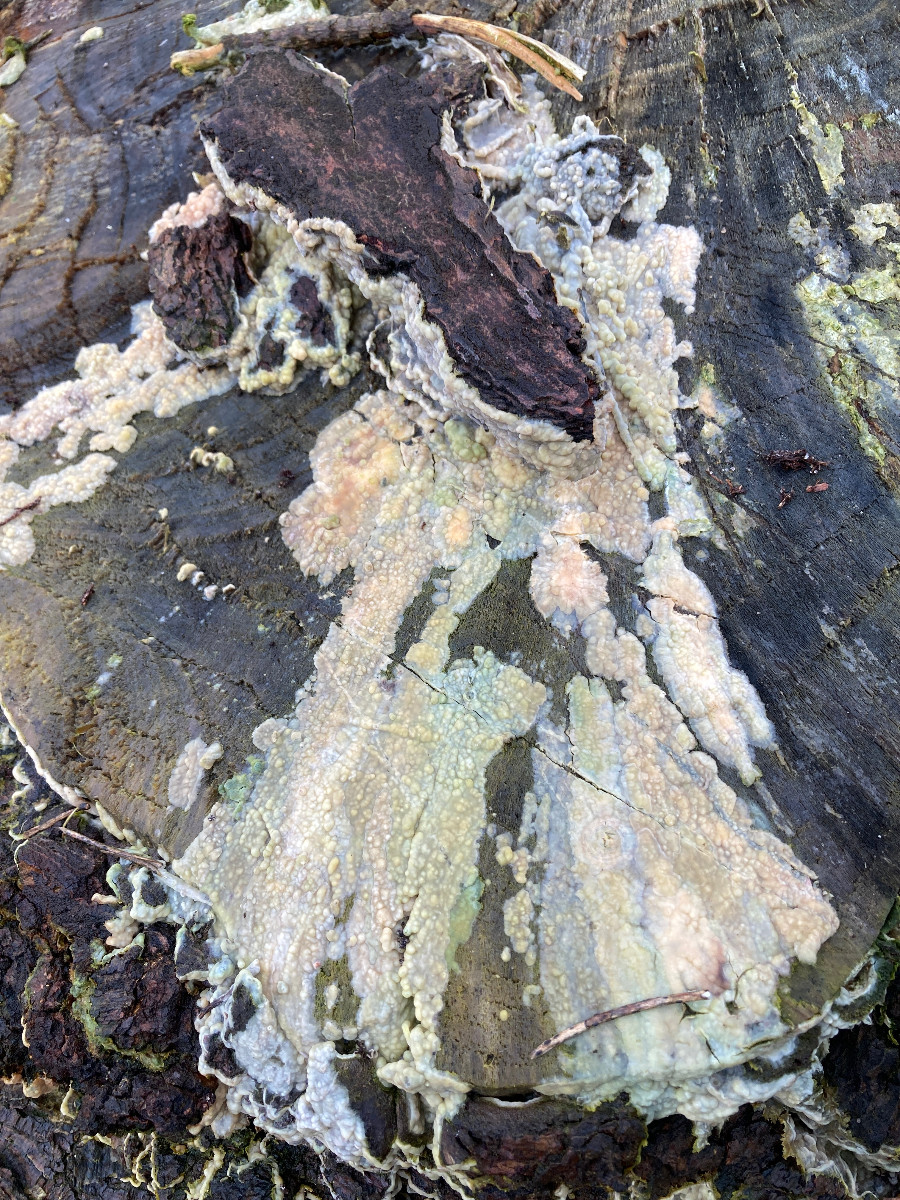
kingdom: Fungi
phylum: Basidiomycota
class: Agaricomycetes
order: Polyporales
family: Phanerochaetaceae
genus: Phlebiopsis
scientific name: Phlebiopsis gigantea
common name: kæmpebarksvamp
